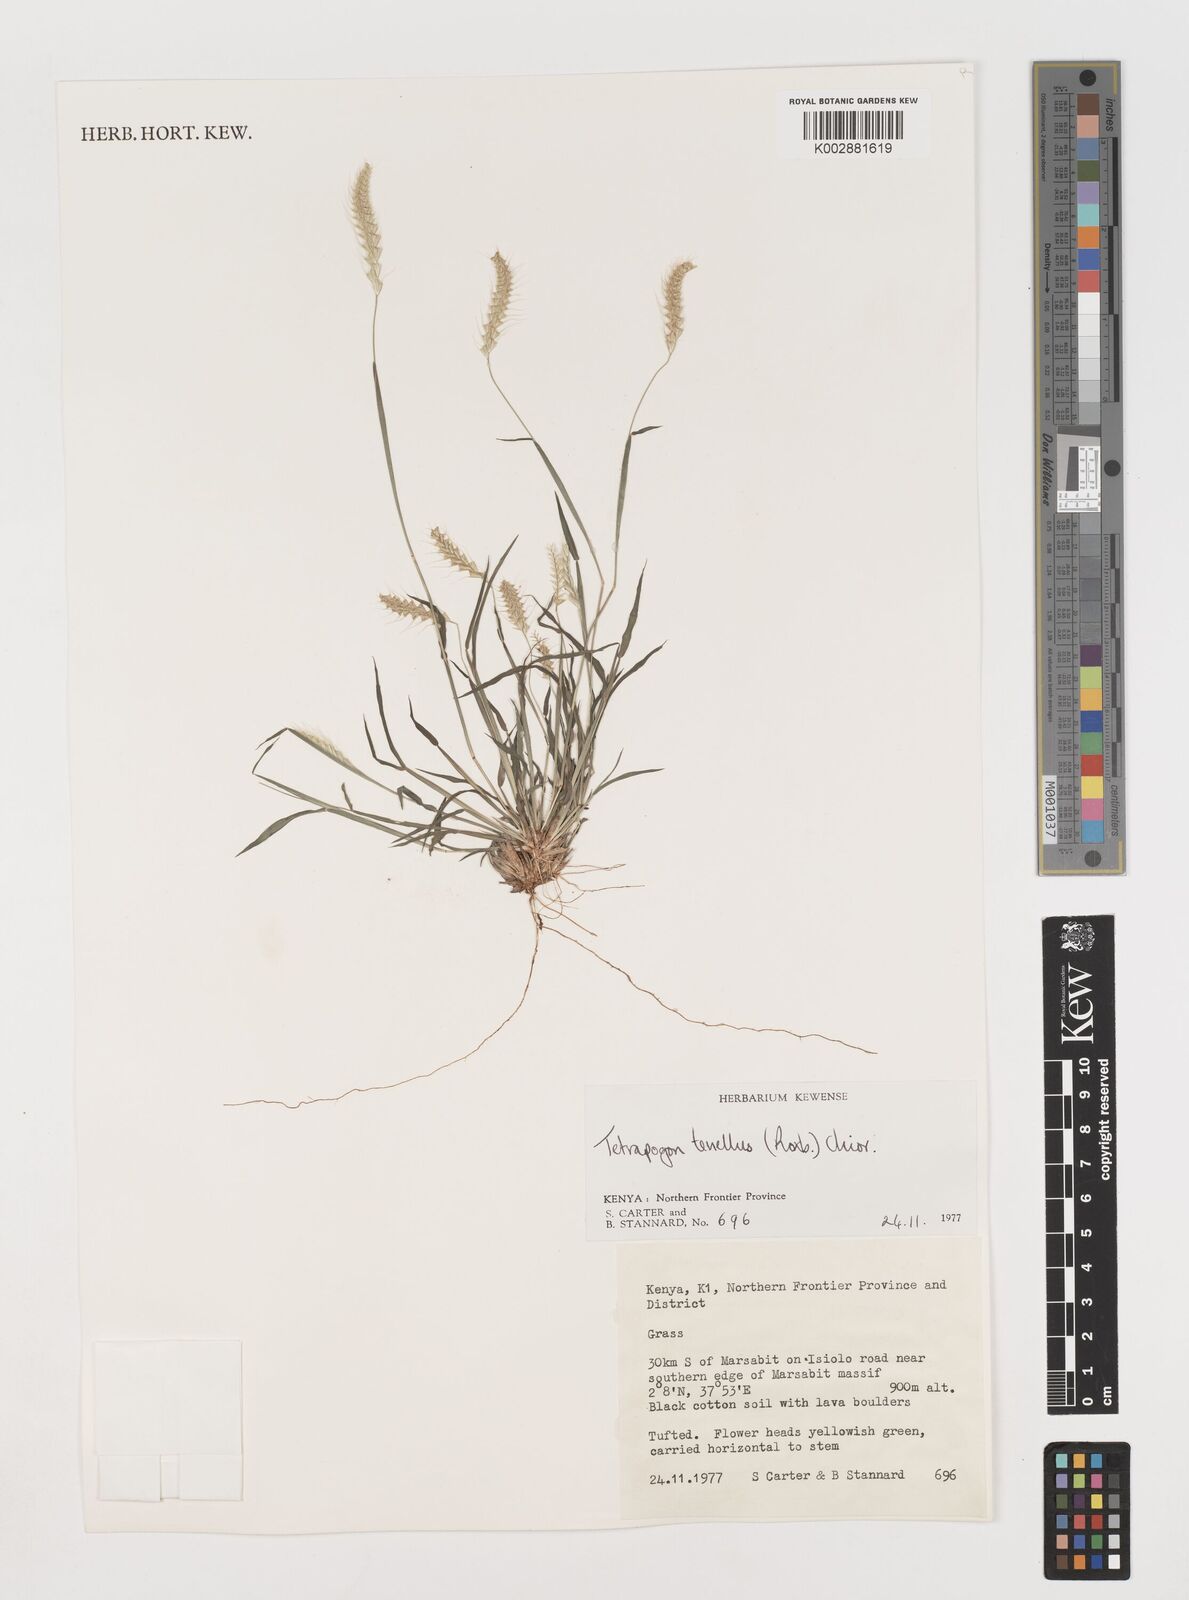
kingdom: Plantae
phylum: Tracheophyta
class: Liliopsida
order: Poales
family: Poaceae
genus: Tetrapogon
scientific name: Tetrapogon tenellus
